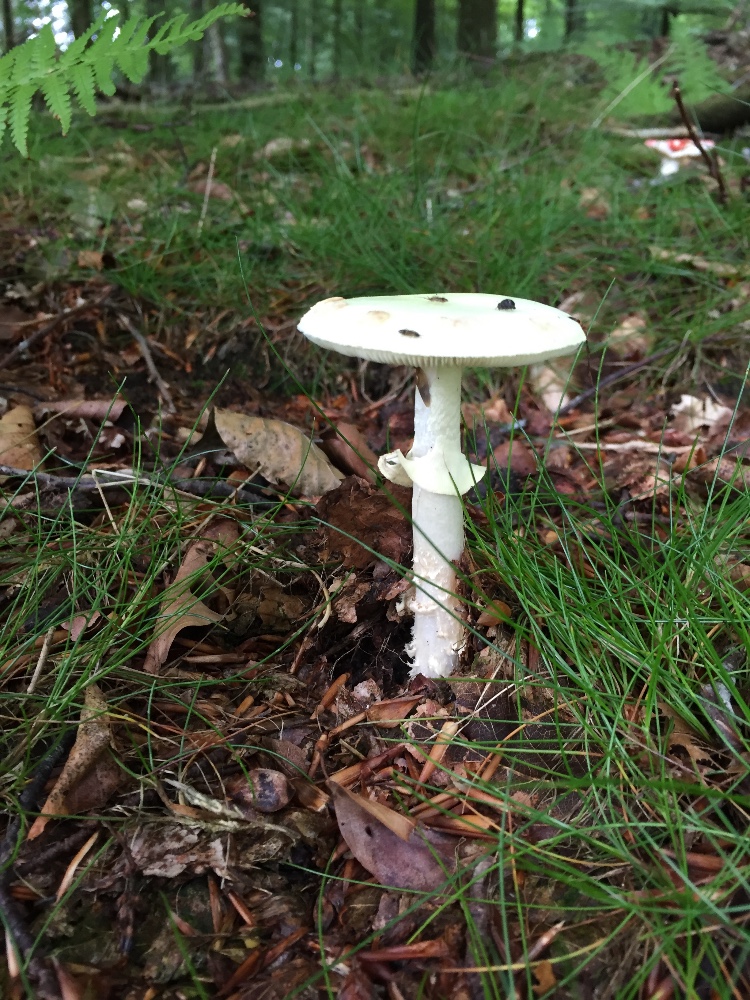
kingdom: Fungi
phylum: Basidiomycota
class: Agaricomycetes
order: Agaricales
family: Amanitaceae
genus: Amanita
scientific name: Amanita citrina
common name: kugleknoldet fluesvamp
